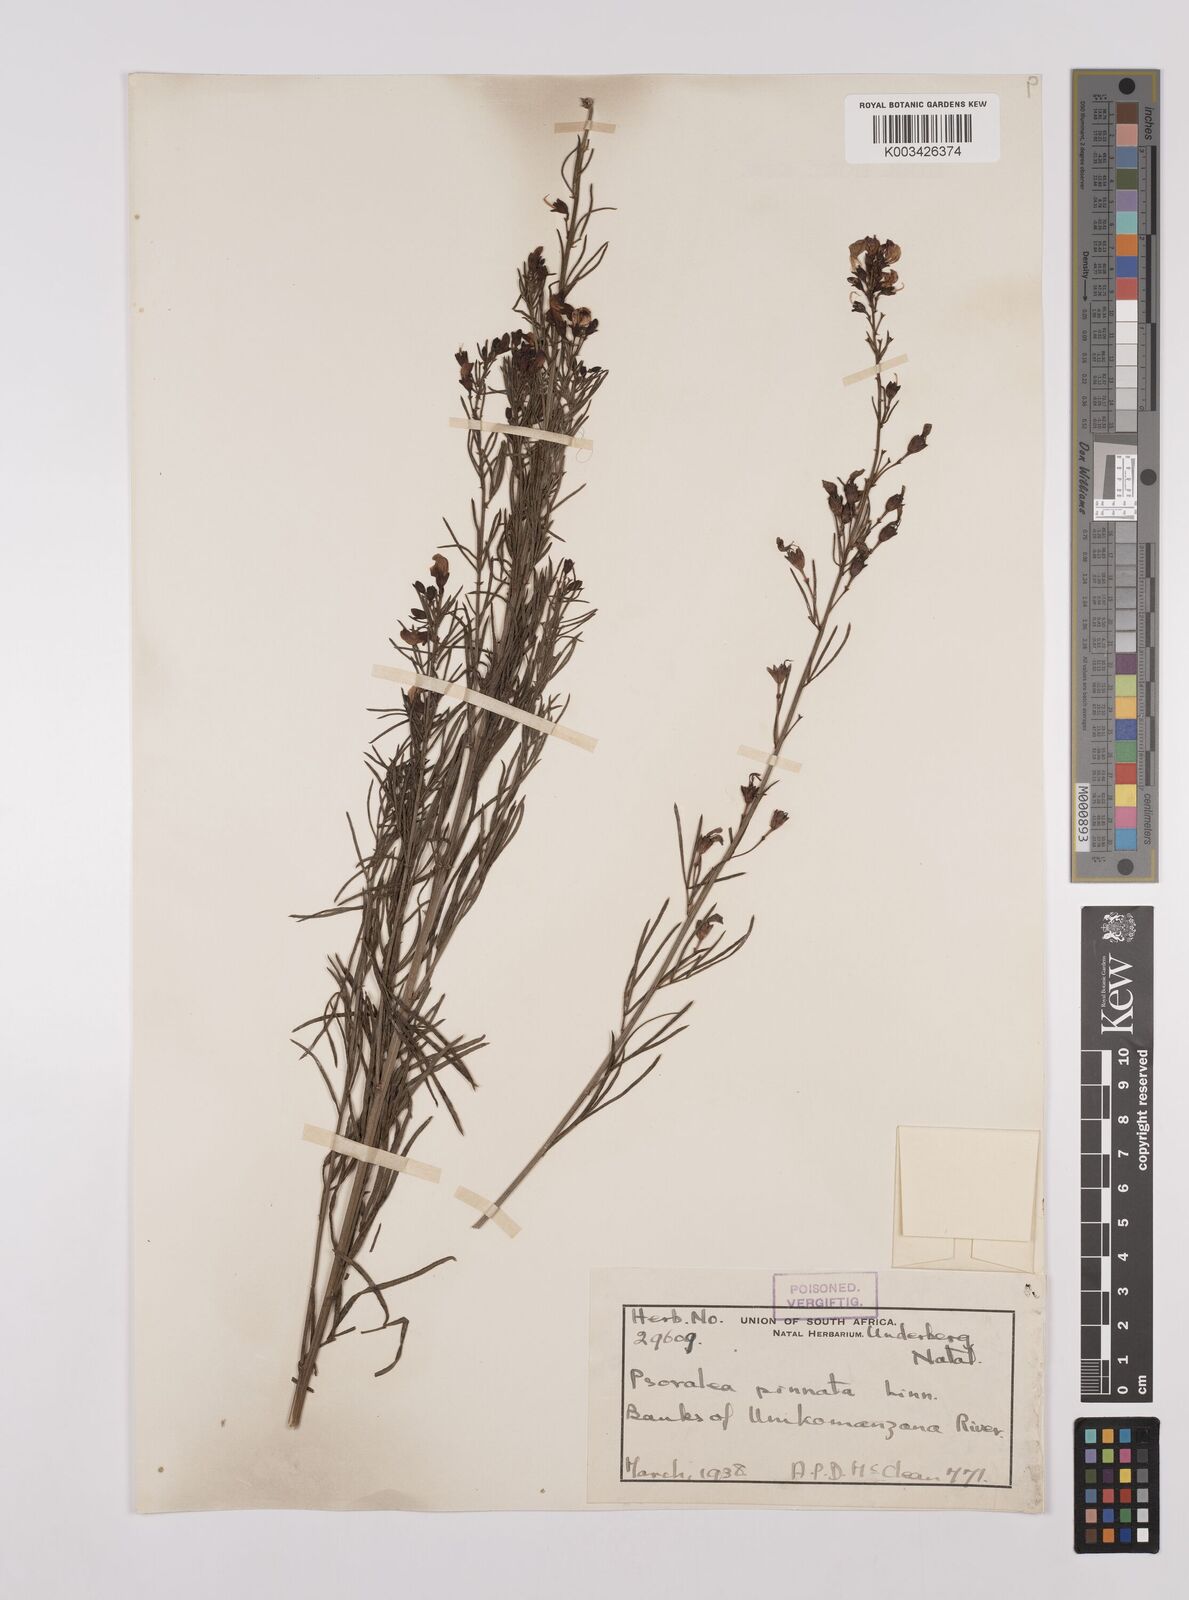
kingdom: Plantae
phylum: Tracheophyta
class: Magnoliopsida
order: Fabales
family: Fabaceae
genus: Psoralea
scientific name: Psoralea rhizotoma
